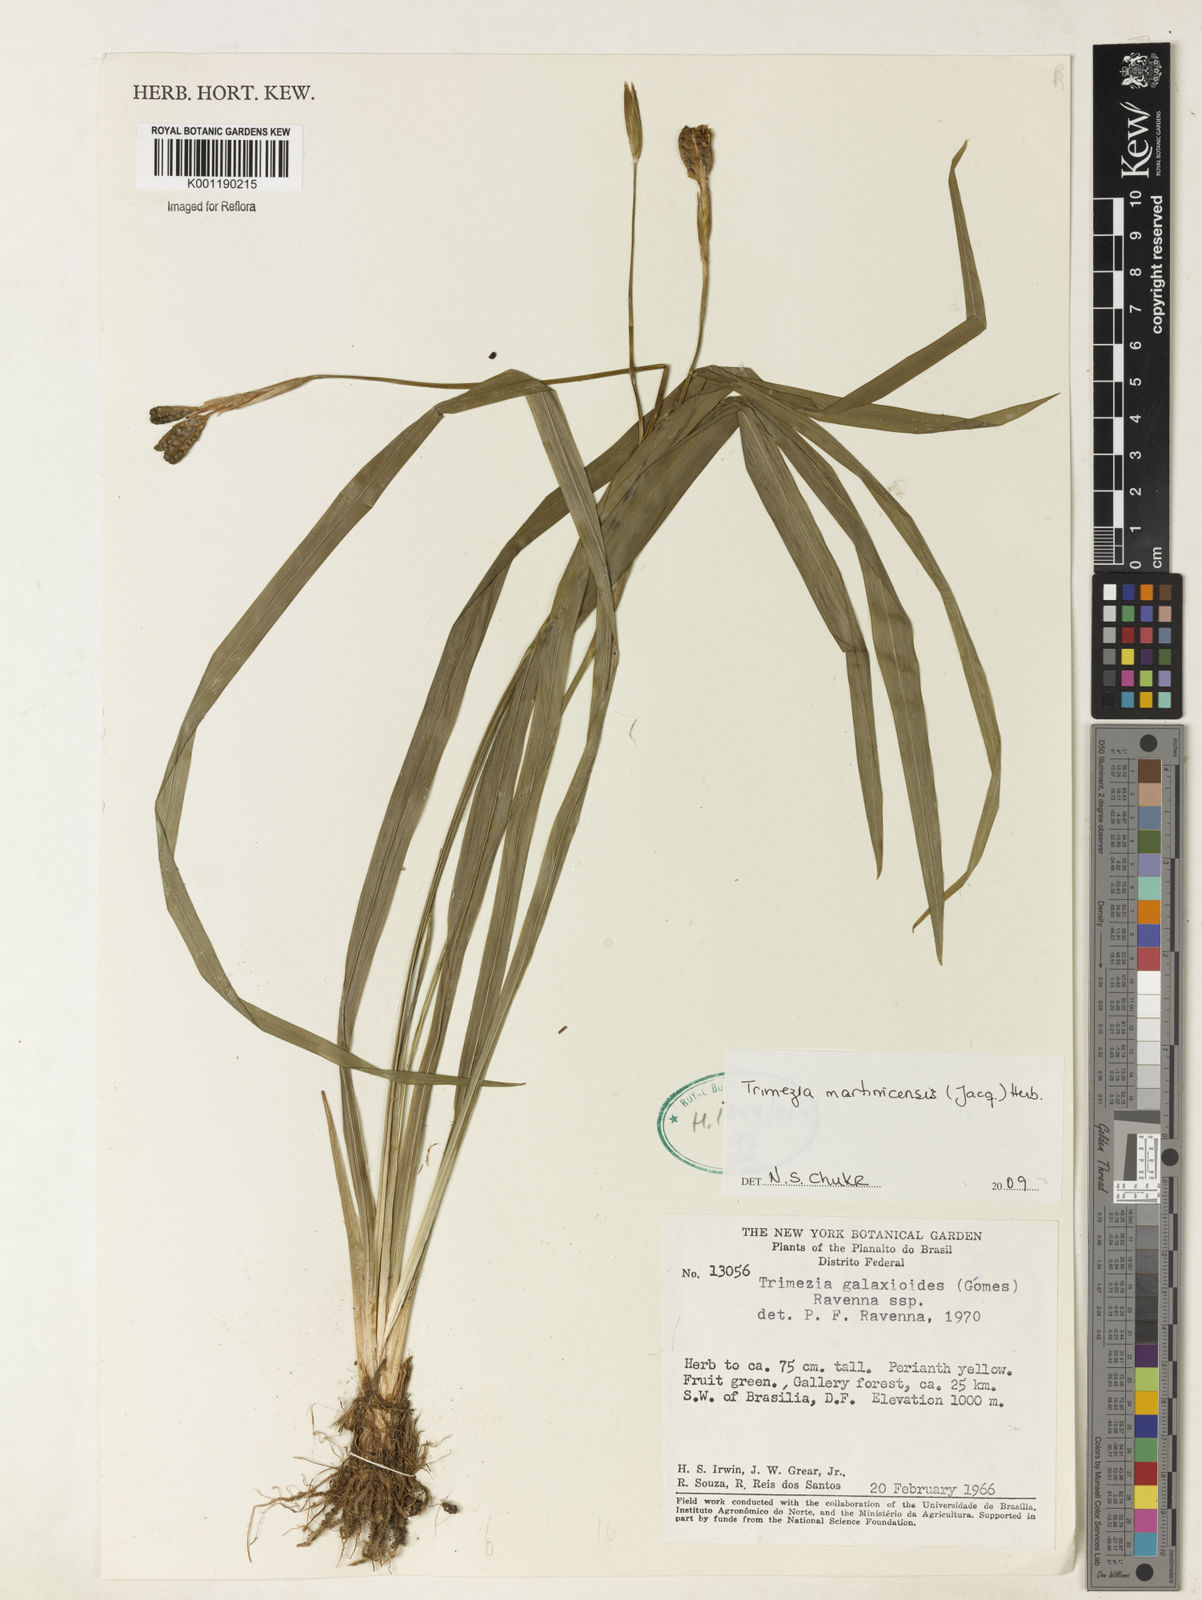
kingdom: Plantae
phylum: Tracheophyta
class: Liliopsida
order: Asparagales
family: Iridaceae
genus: Trimezia
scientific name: Trimezia martinicensis
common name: Martinique trimezia
